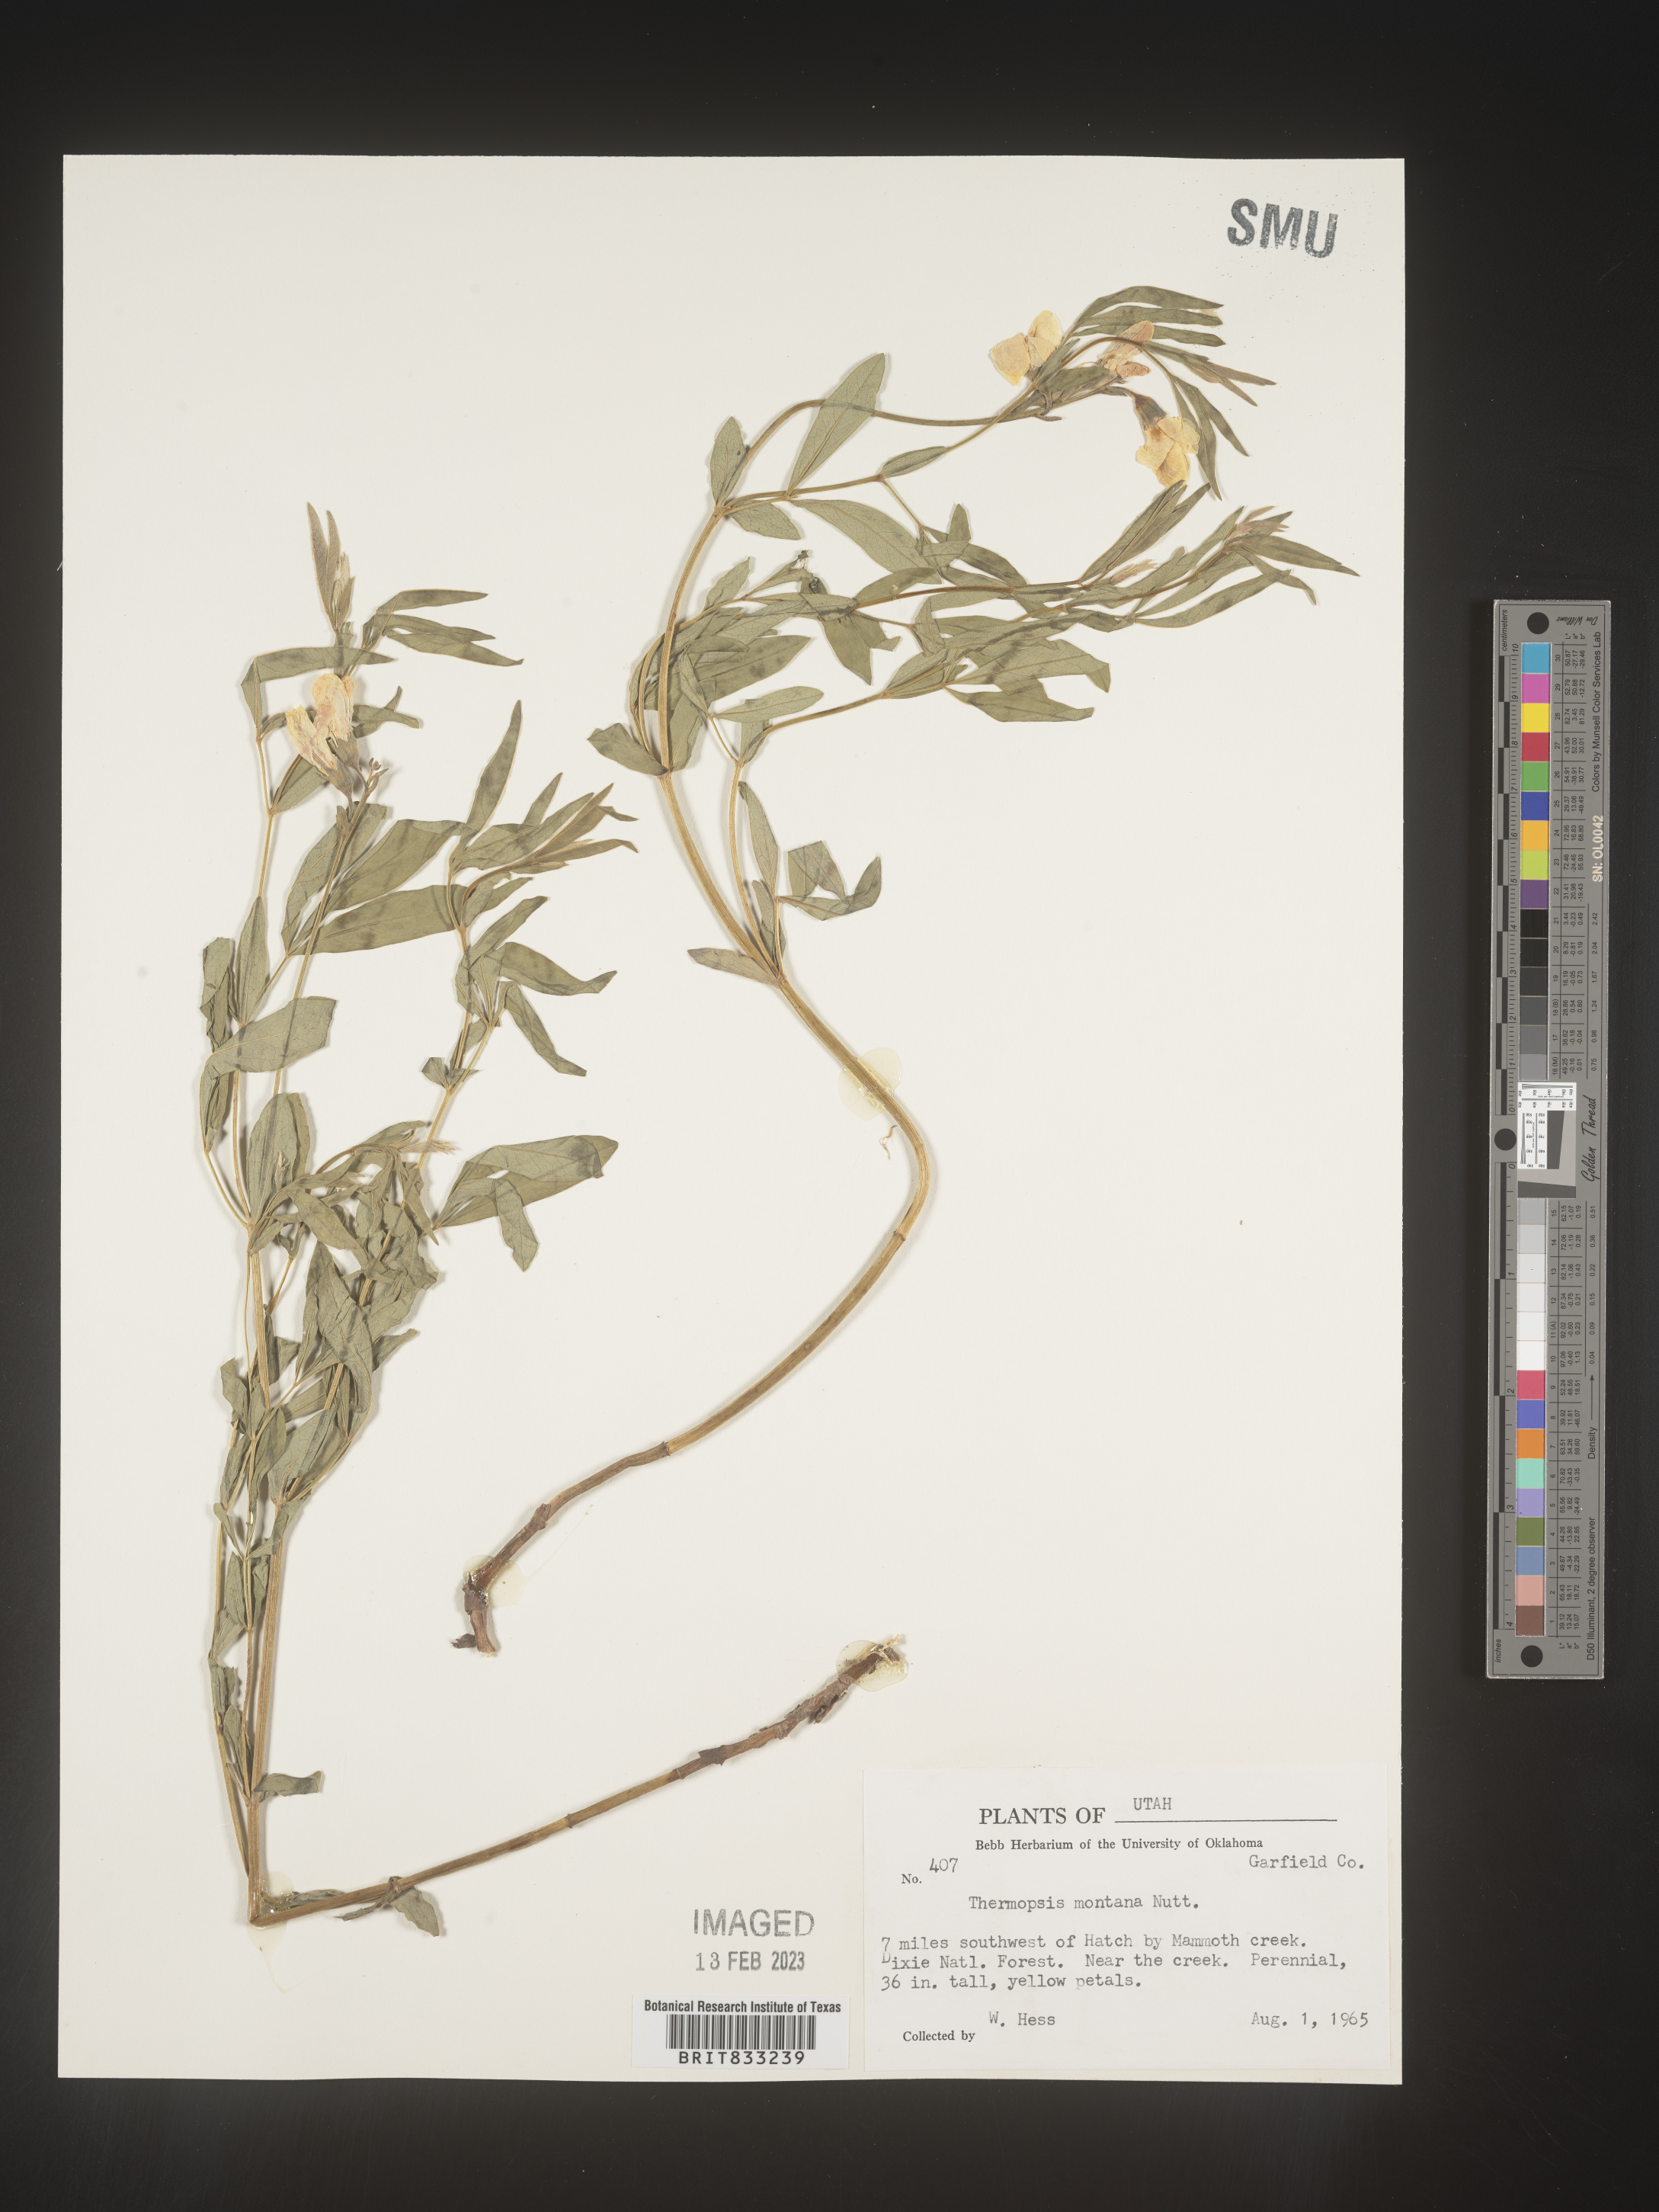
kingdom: Plantae
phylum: Tracheophyta
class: Magnoliopsida
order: Fabales
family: Fabaceae
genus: Thermopsis
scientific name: Thermopsis montana
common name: False lupin
